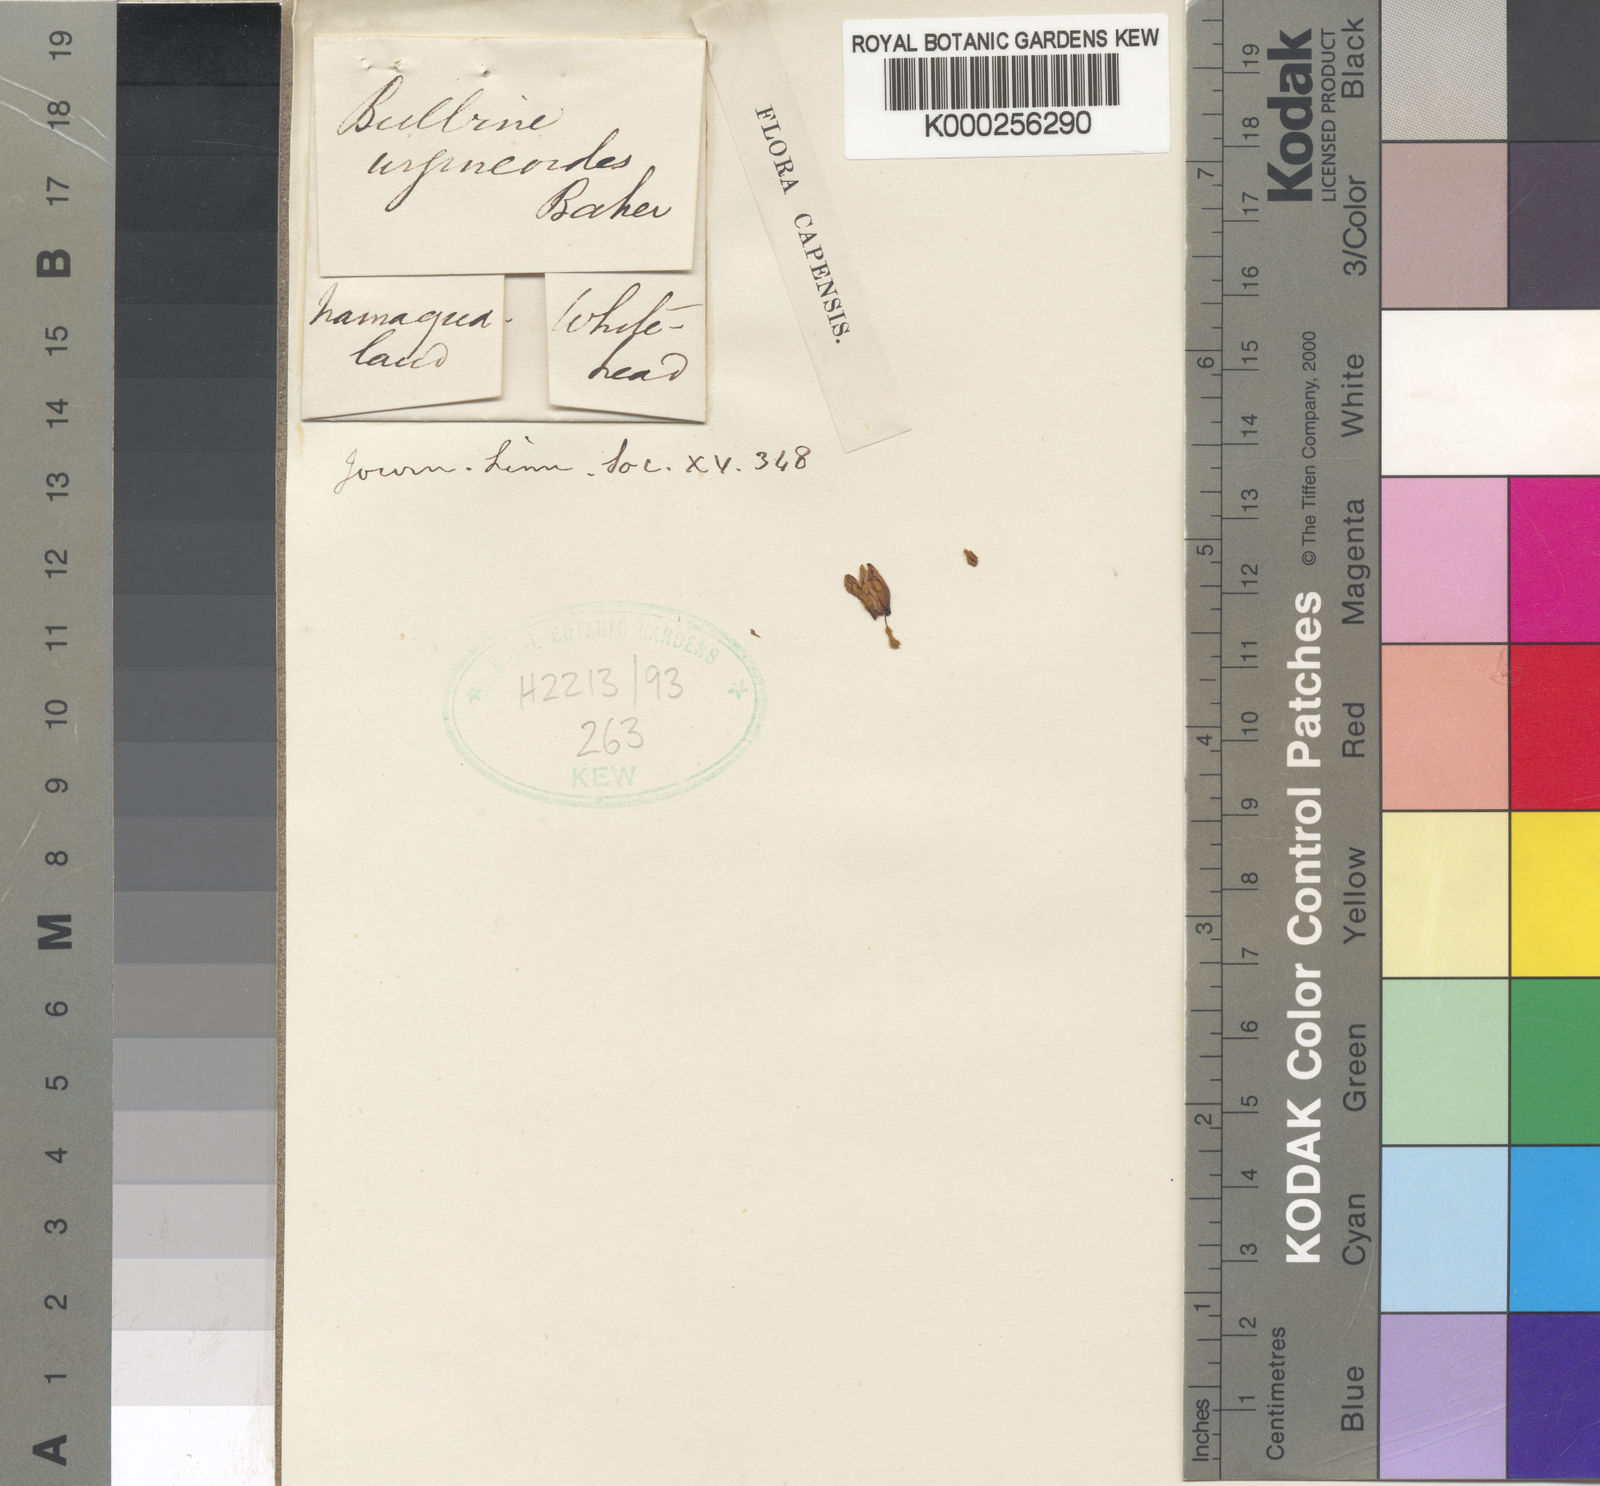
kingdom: Plantae
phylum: Tracheophyta
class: Liliopsida
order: Asparagales
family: Asphodelaceae
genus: Bulbine
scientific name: Bulbine praemorsa
